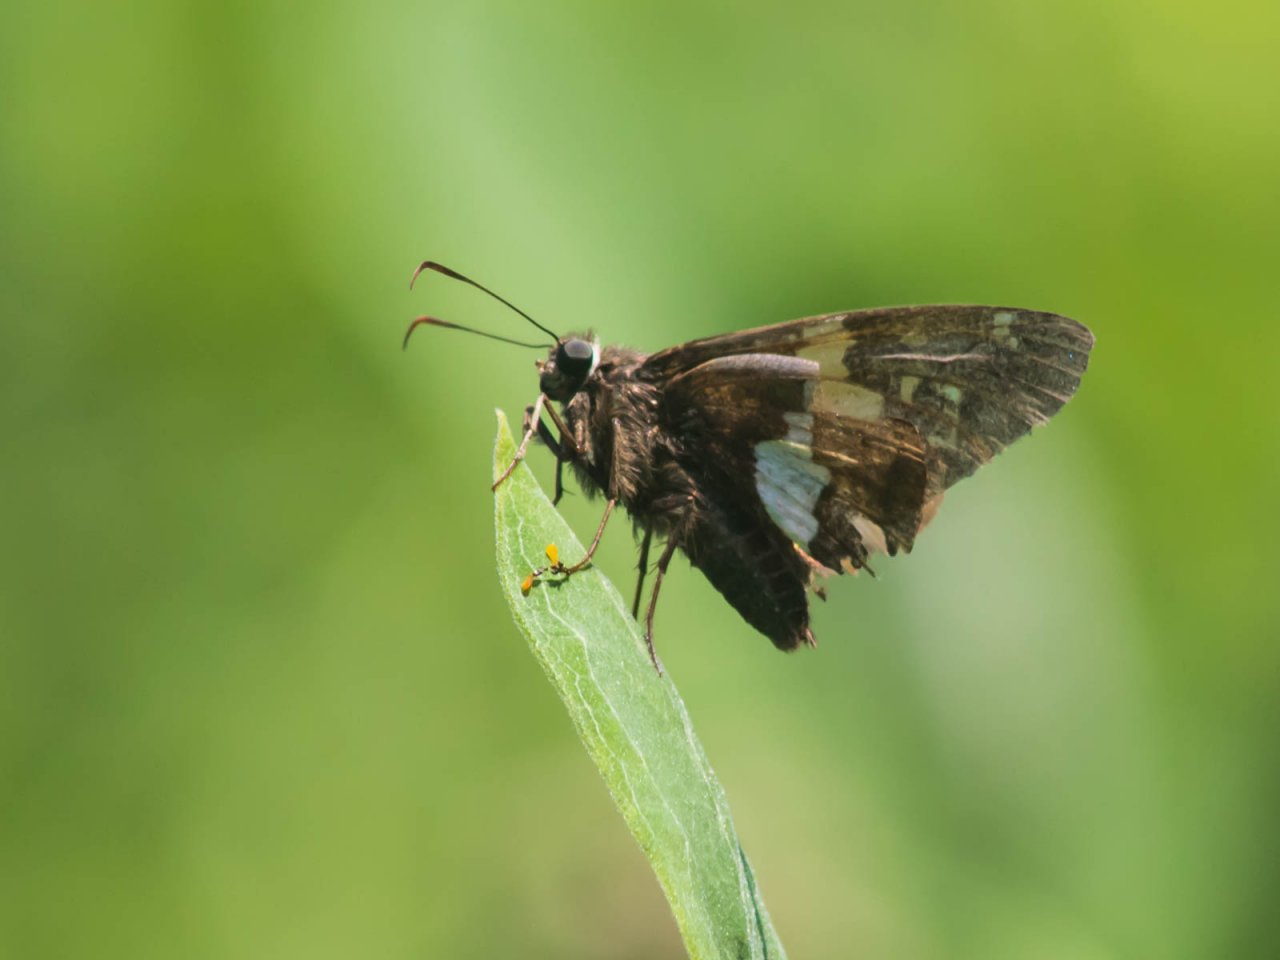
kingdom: Animalia
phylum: Arthropoda
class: Insecta
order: Lepidoptera
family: Hesperiidae
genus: Epargyreus
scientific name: Epargyreus clarus
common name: Silver-spotted Skipper
